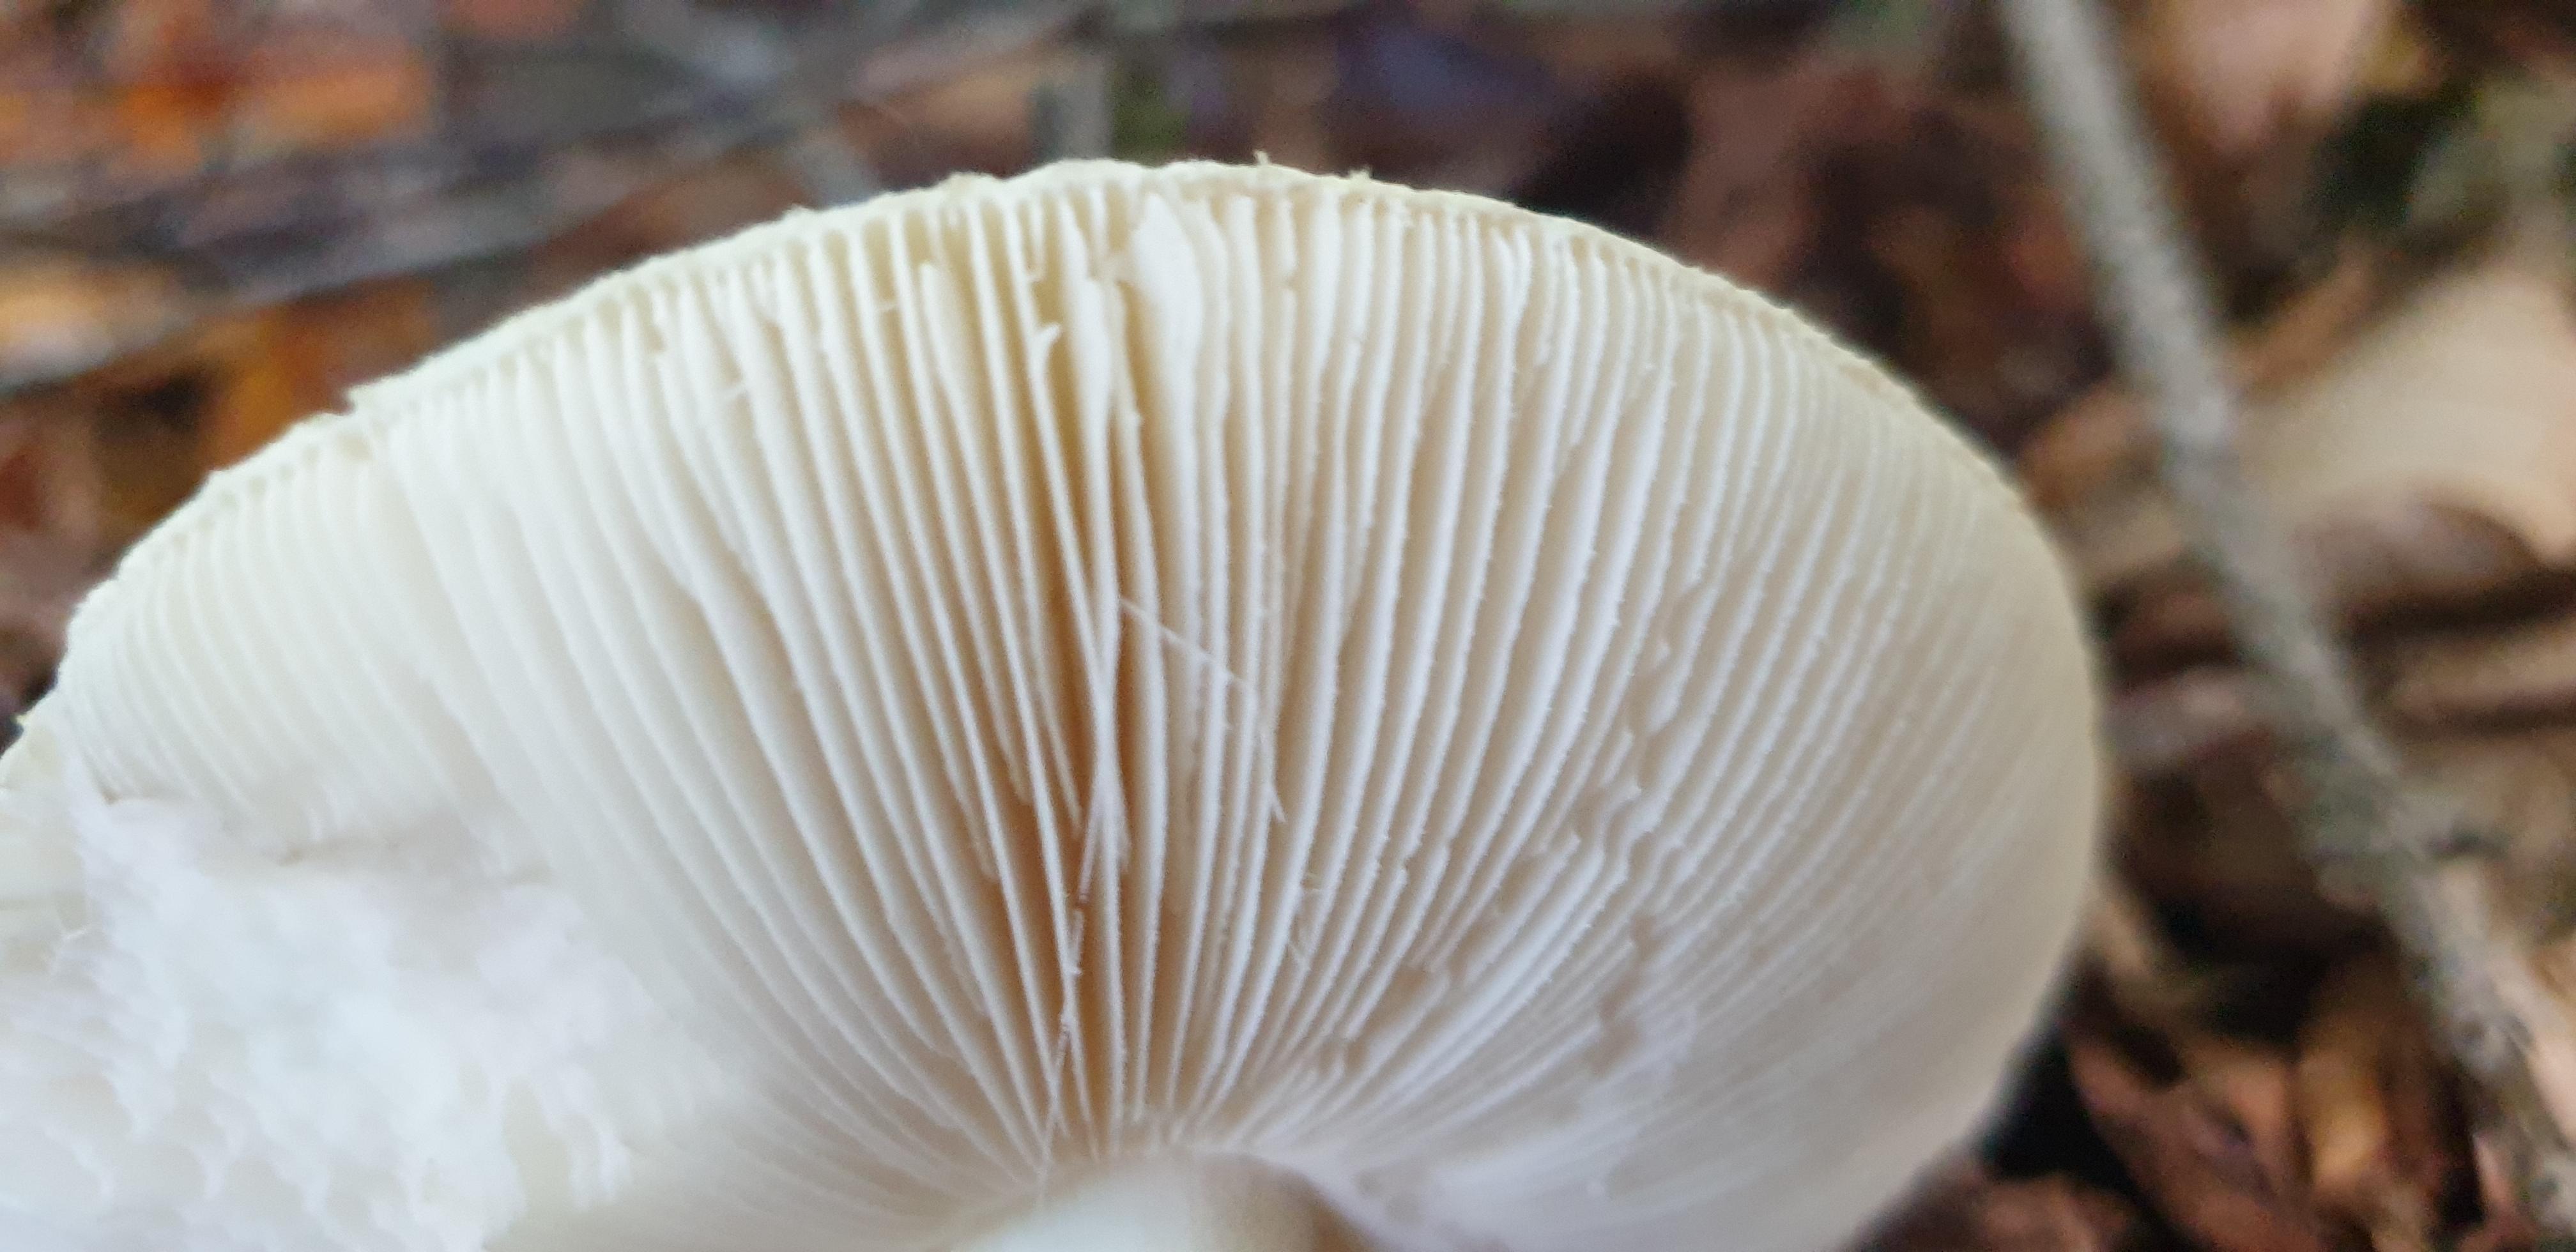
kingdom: Fungi
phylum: Basidiomycota
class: Agaricomycetes
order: Agaricales
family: Amanitaceae
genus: Amanita
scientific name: Amanita citrina
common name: kugleknoldet fluesvamp
